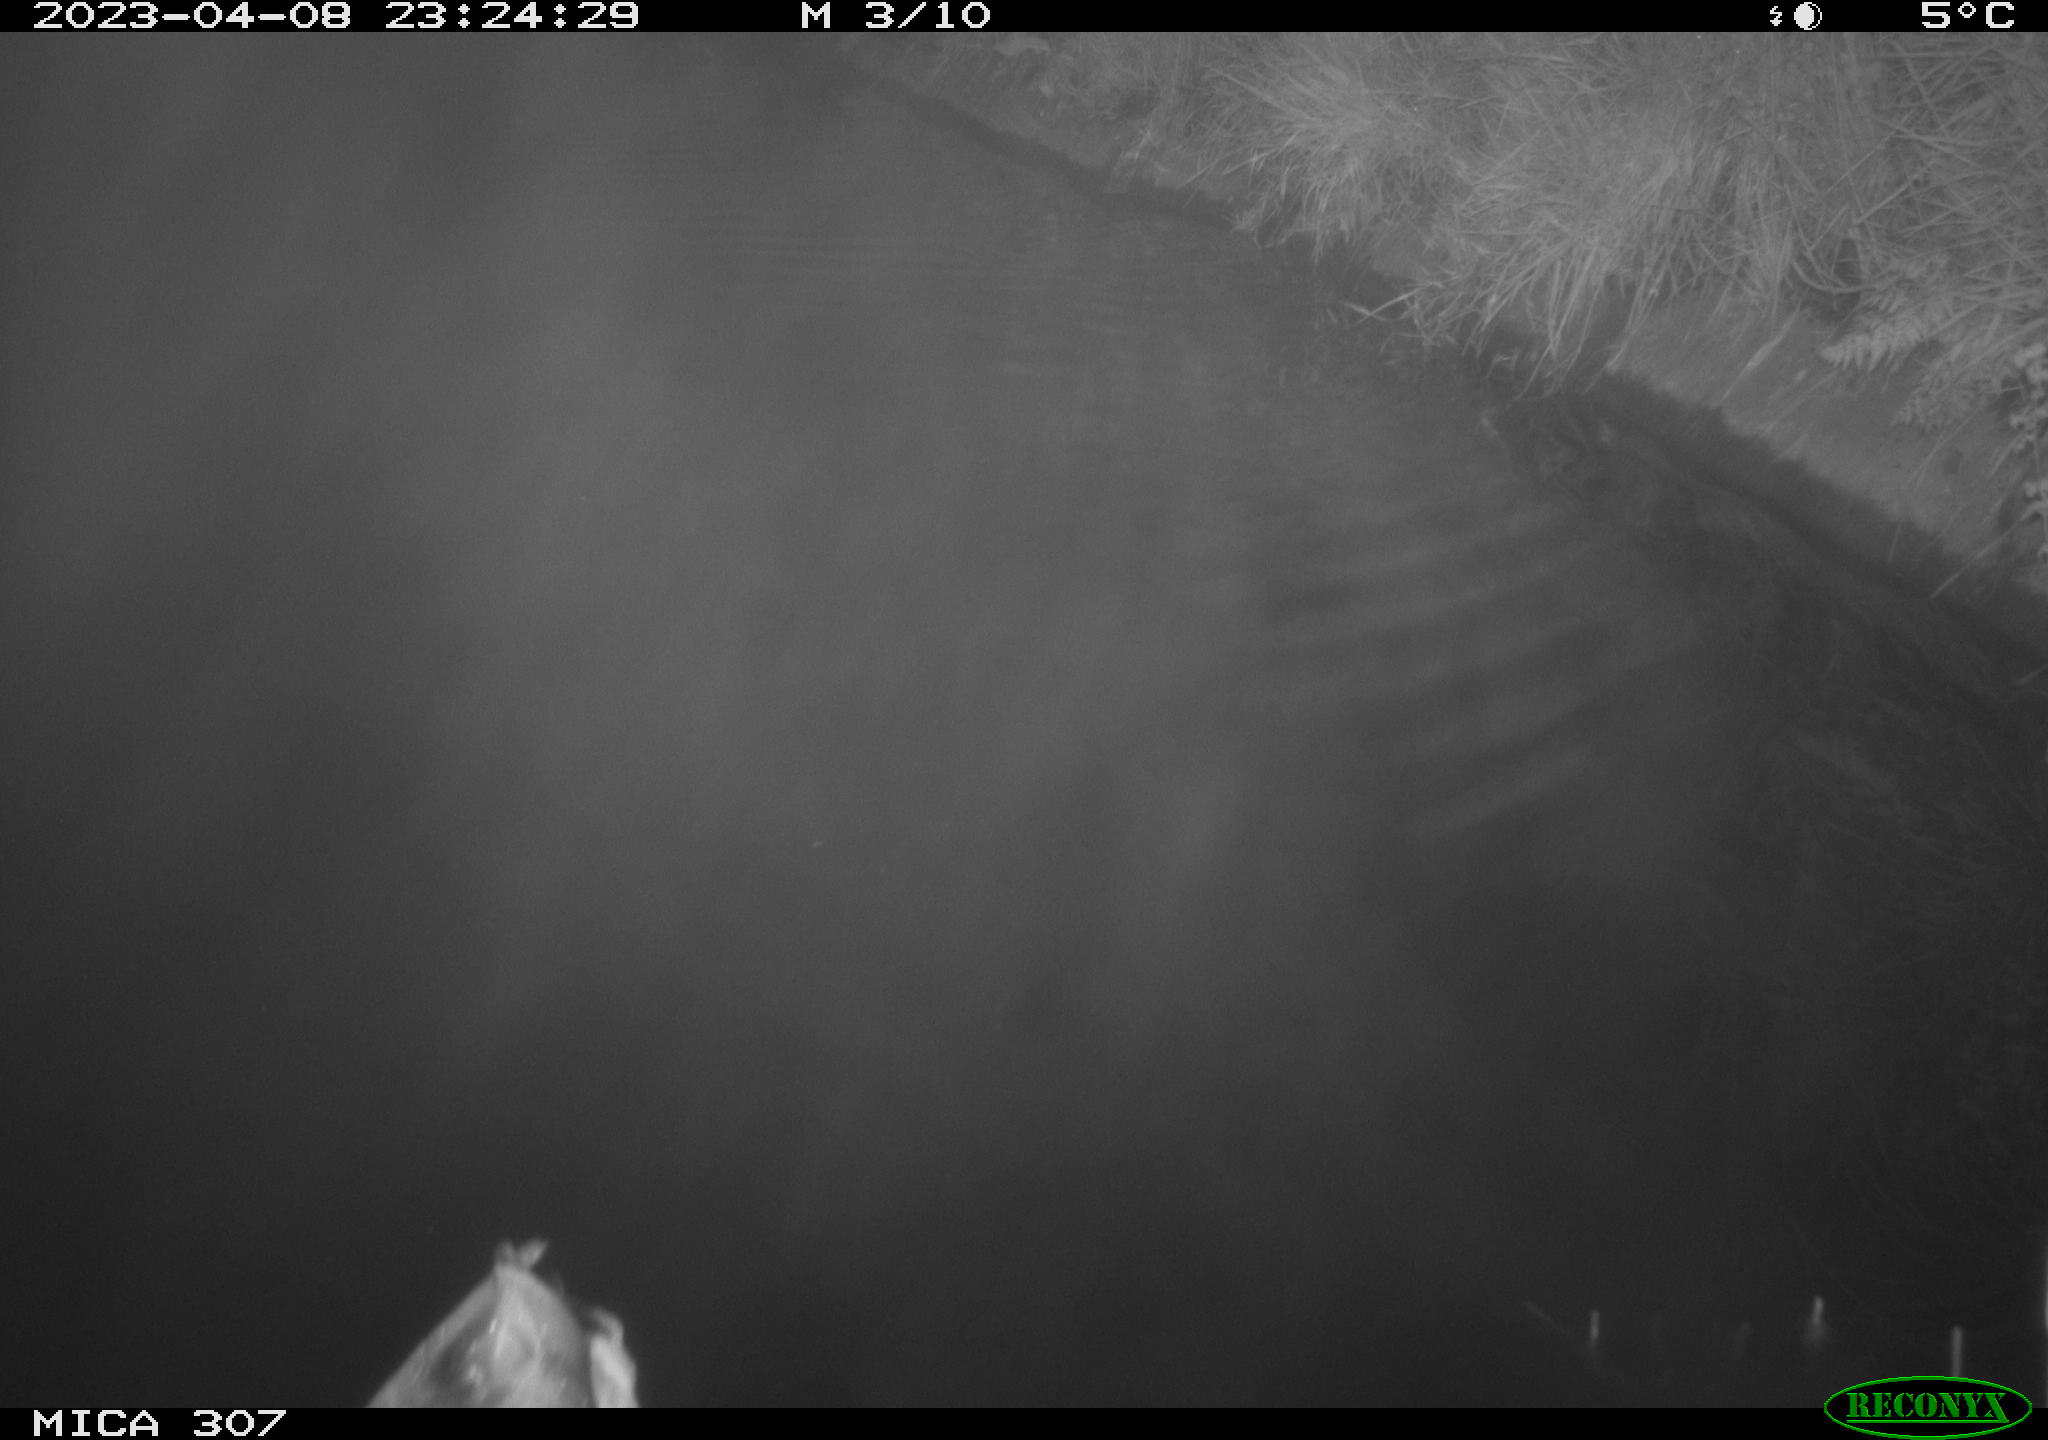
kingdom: Animalia
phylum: Chordata
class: Aves
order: Anseriformes
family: Anatidae
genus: Anas
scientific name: Anas
